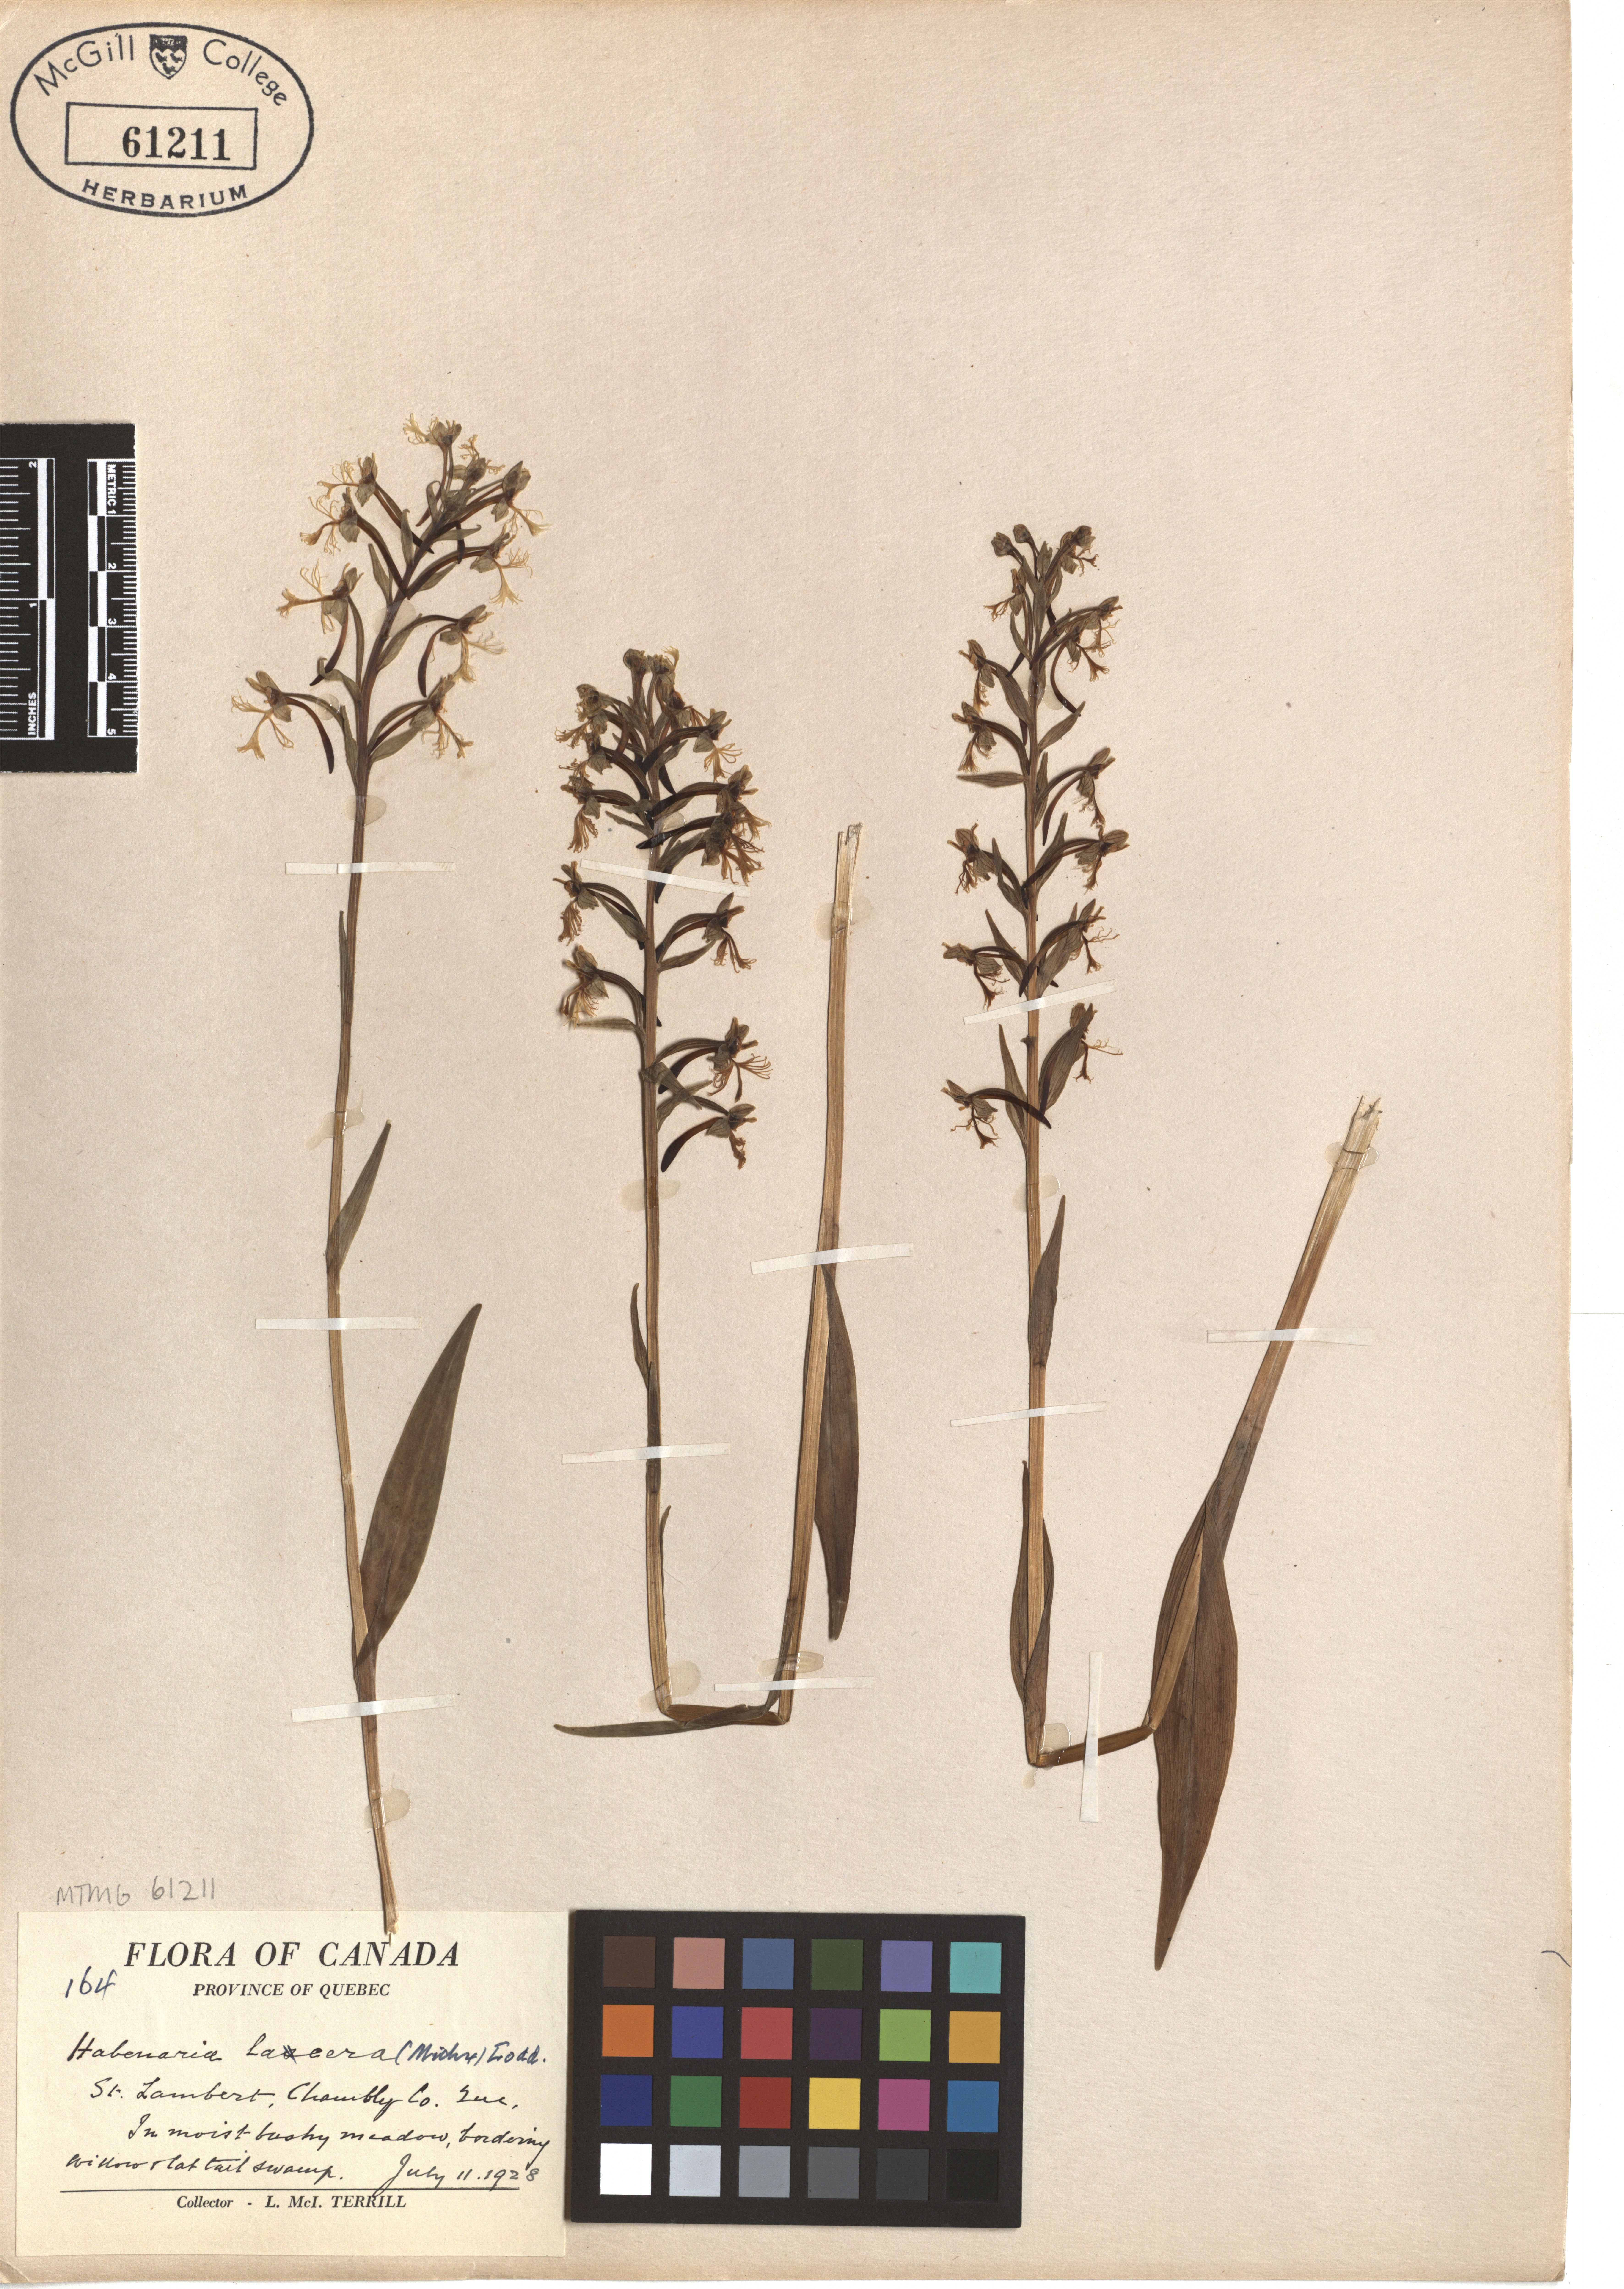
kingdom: Plantae
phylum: Tracheophyta
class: Liliopsida
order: Asparagales
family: Orchidaceae
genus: Platanthera
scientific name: Platanthera lacera
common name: Green fringed orchid
